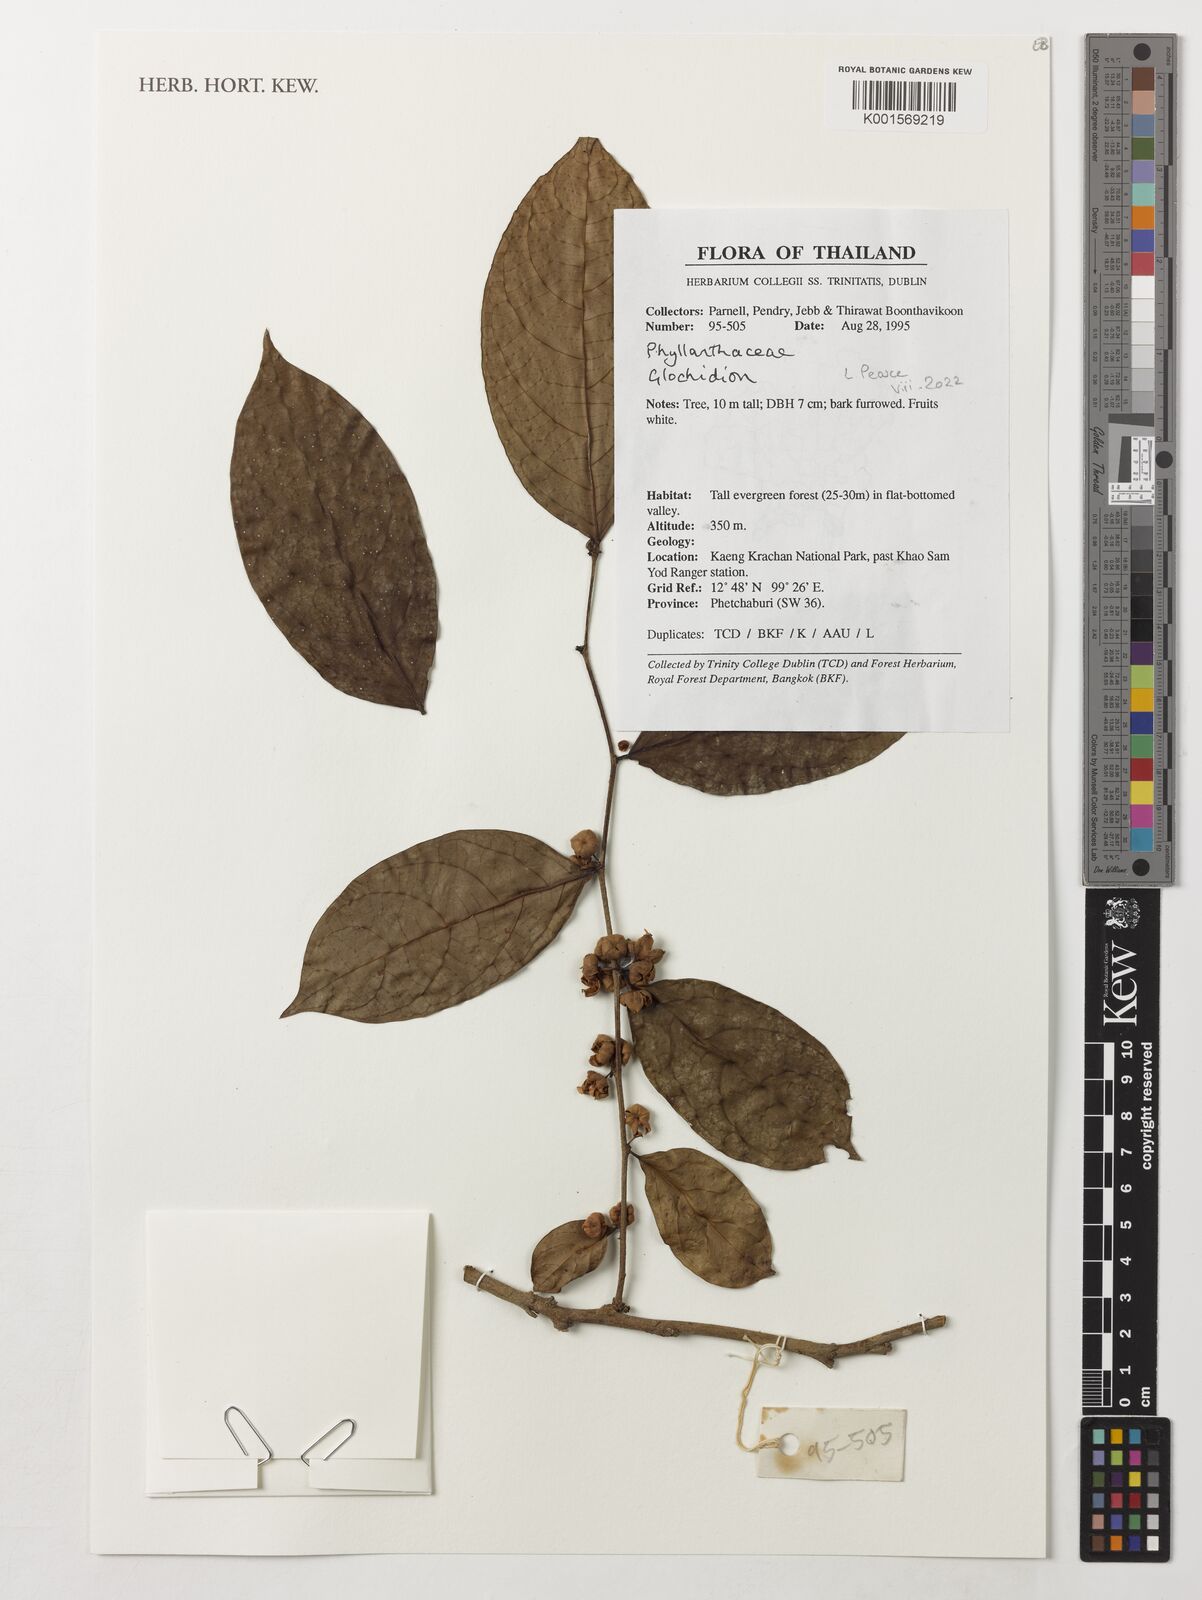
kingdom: Plantae
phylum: Tracheophyta
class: Magnoliopsida
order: Malpighiales
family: Phyllanthaceae
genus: Glochidion
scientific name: Glochidion
